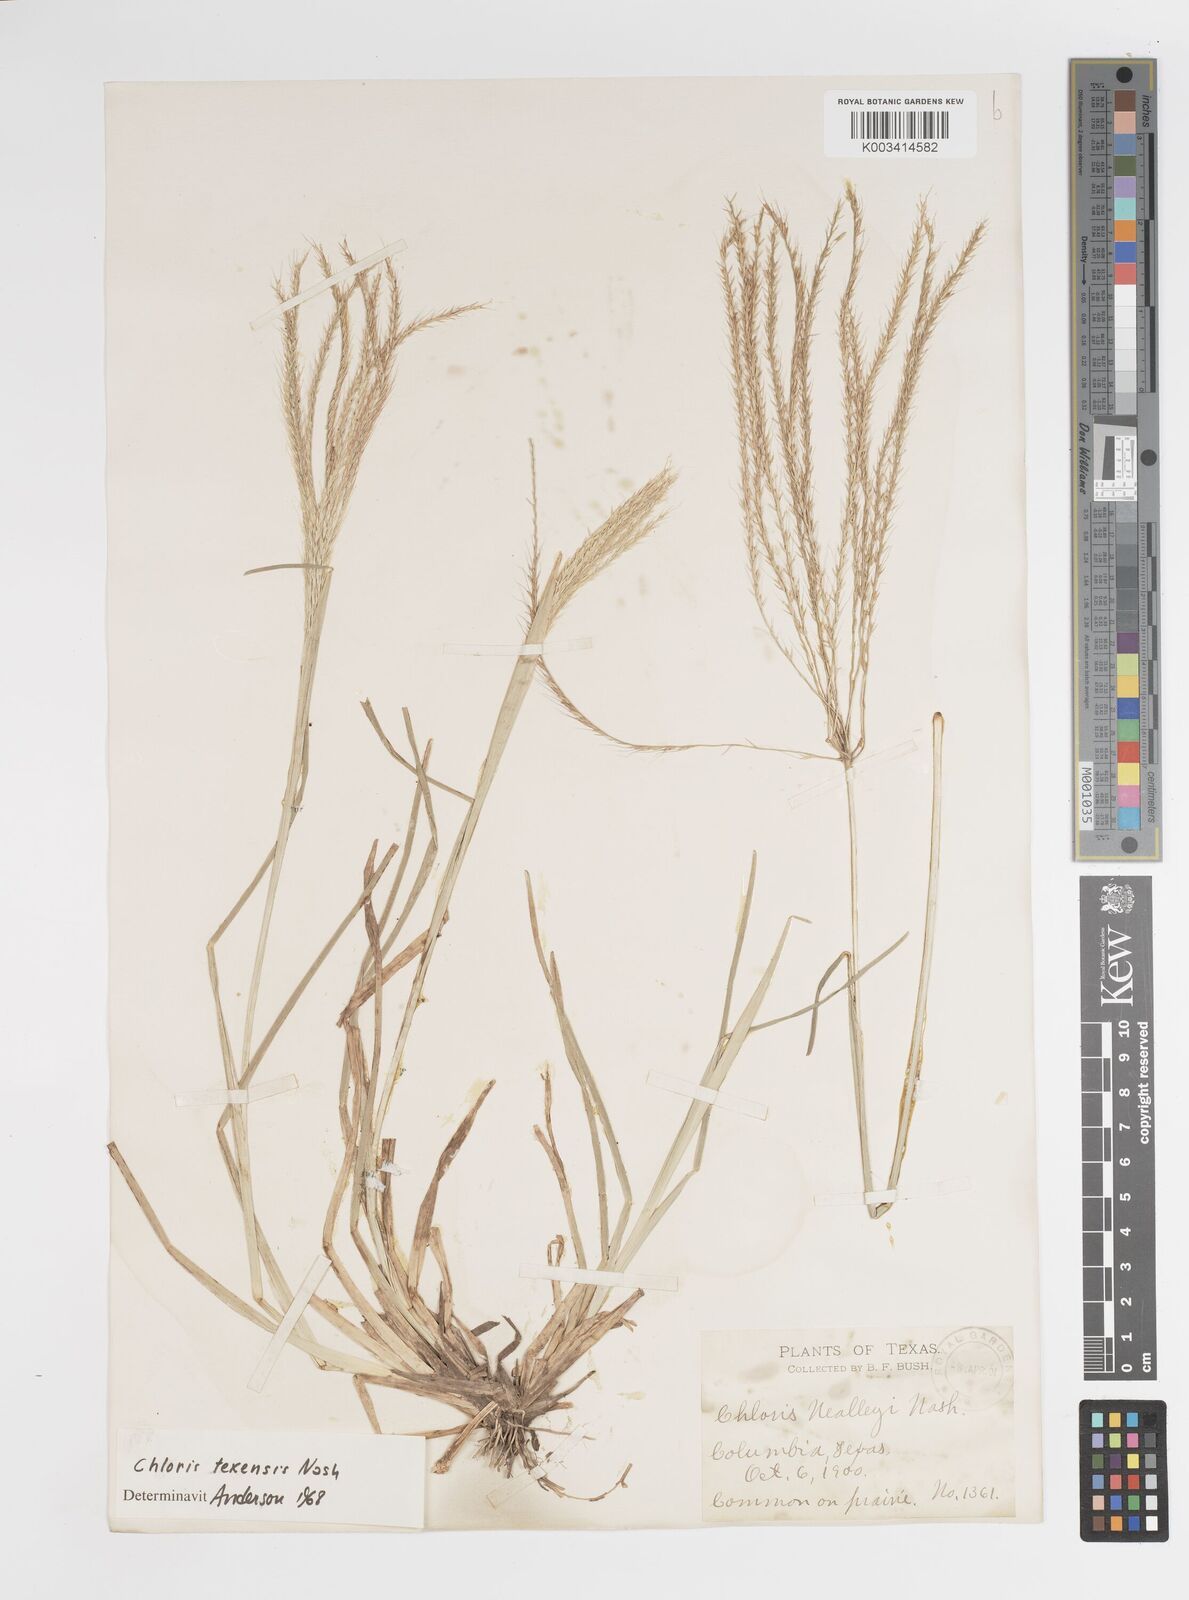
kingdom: Plantae
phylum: Tracheophyta
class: Liliopsida
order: Poales
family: Poaceae
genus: Chloris
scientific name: Chloris texensis
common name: Texas windmill grass
